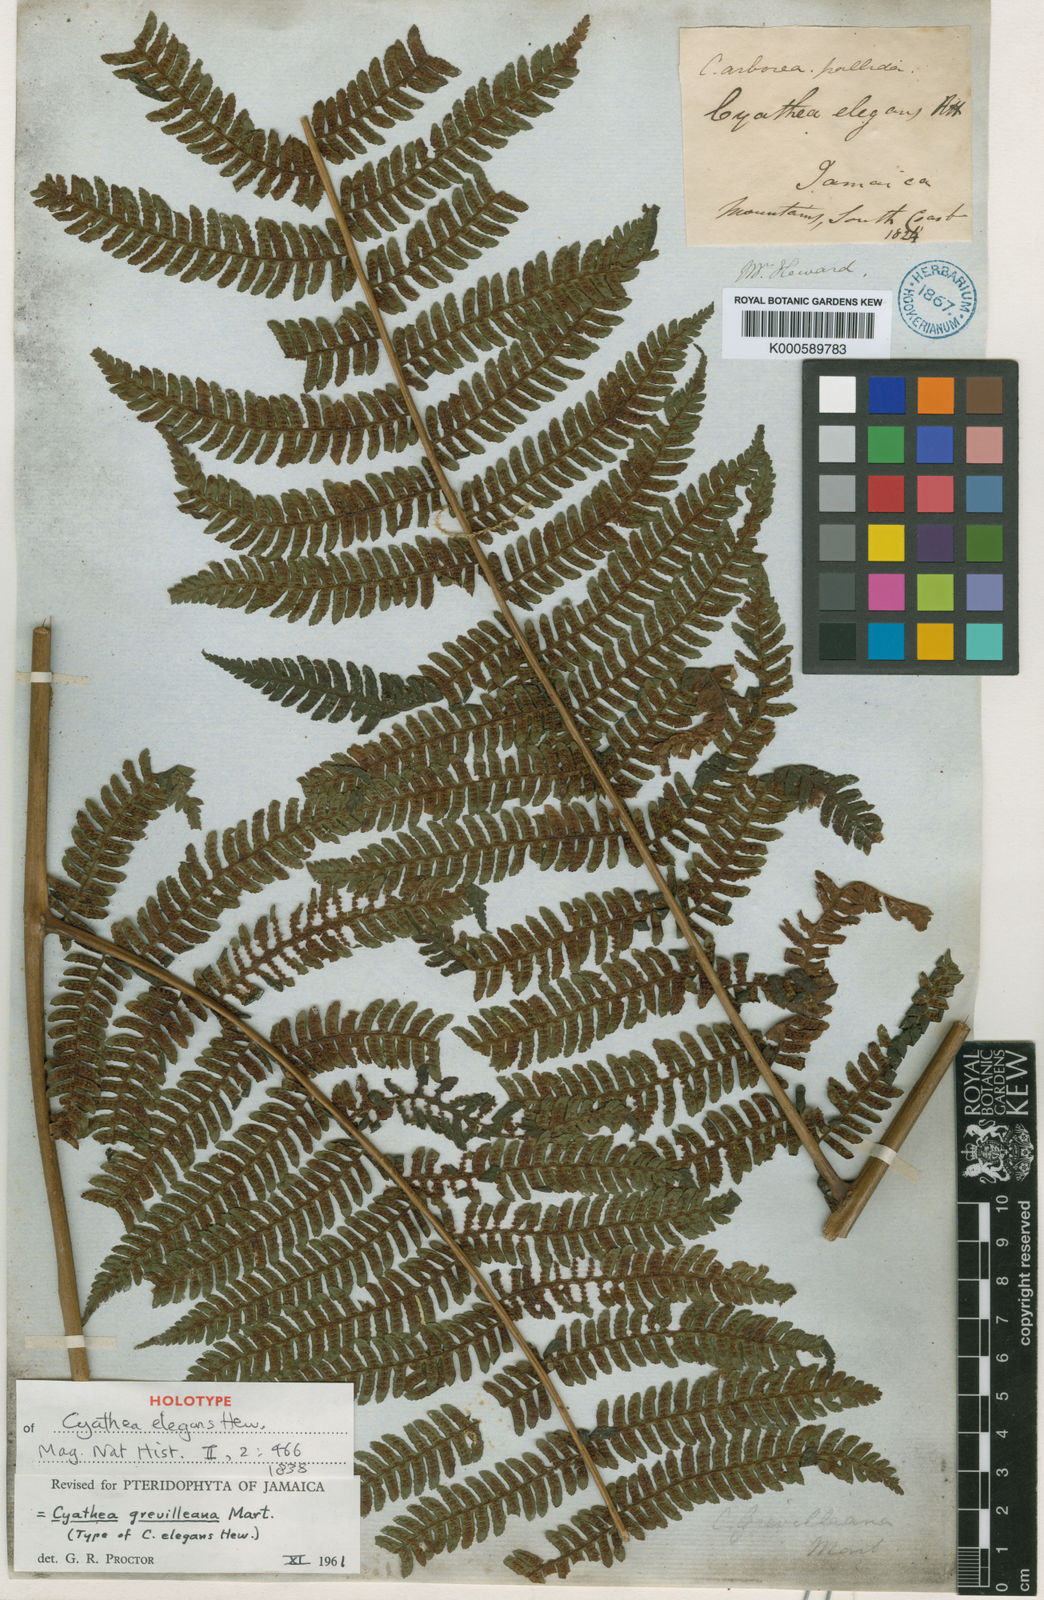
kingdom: Plantae
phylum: Tracheophyta
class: Polypodiopsida
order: Cyatheales
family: Cyatheaceae
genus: Alsophila
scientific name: Alsophila grevilleana
